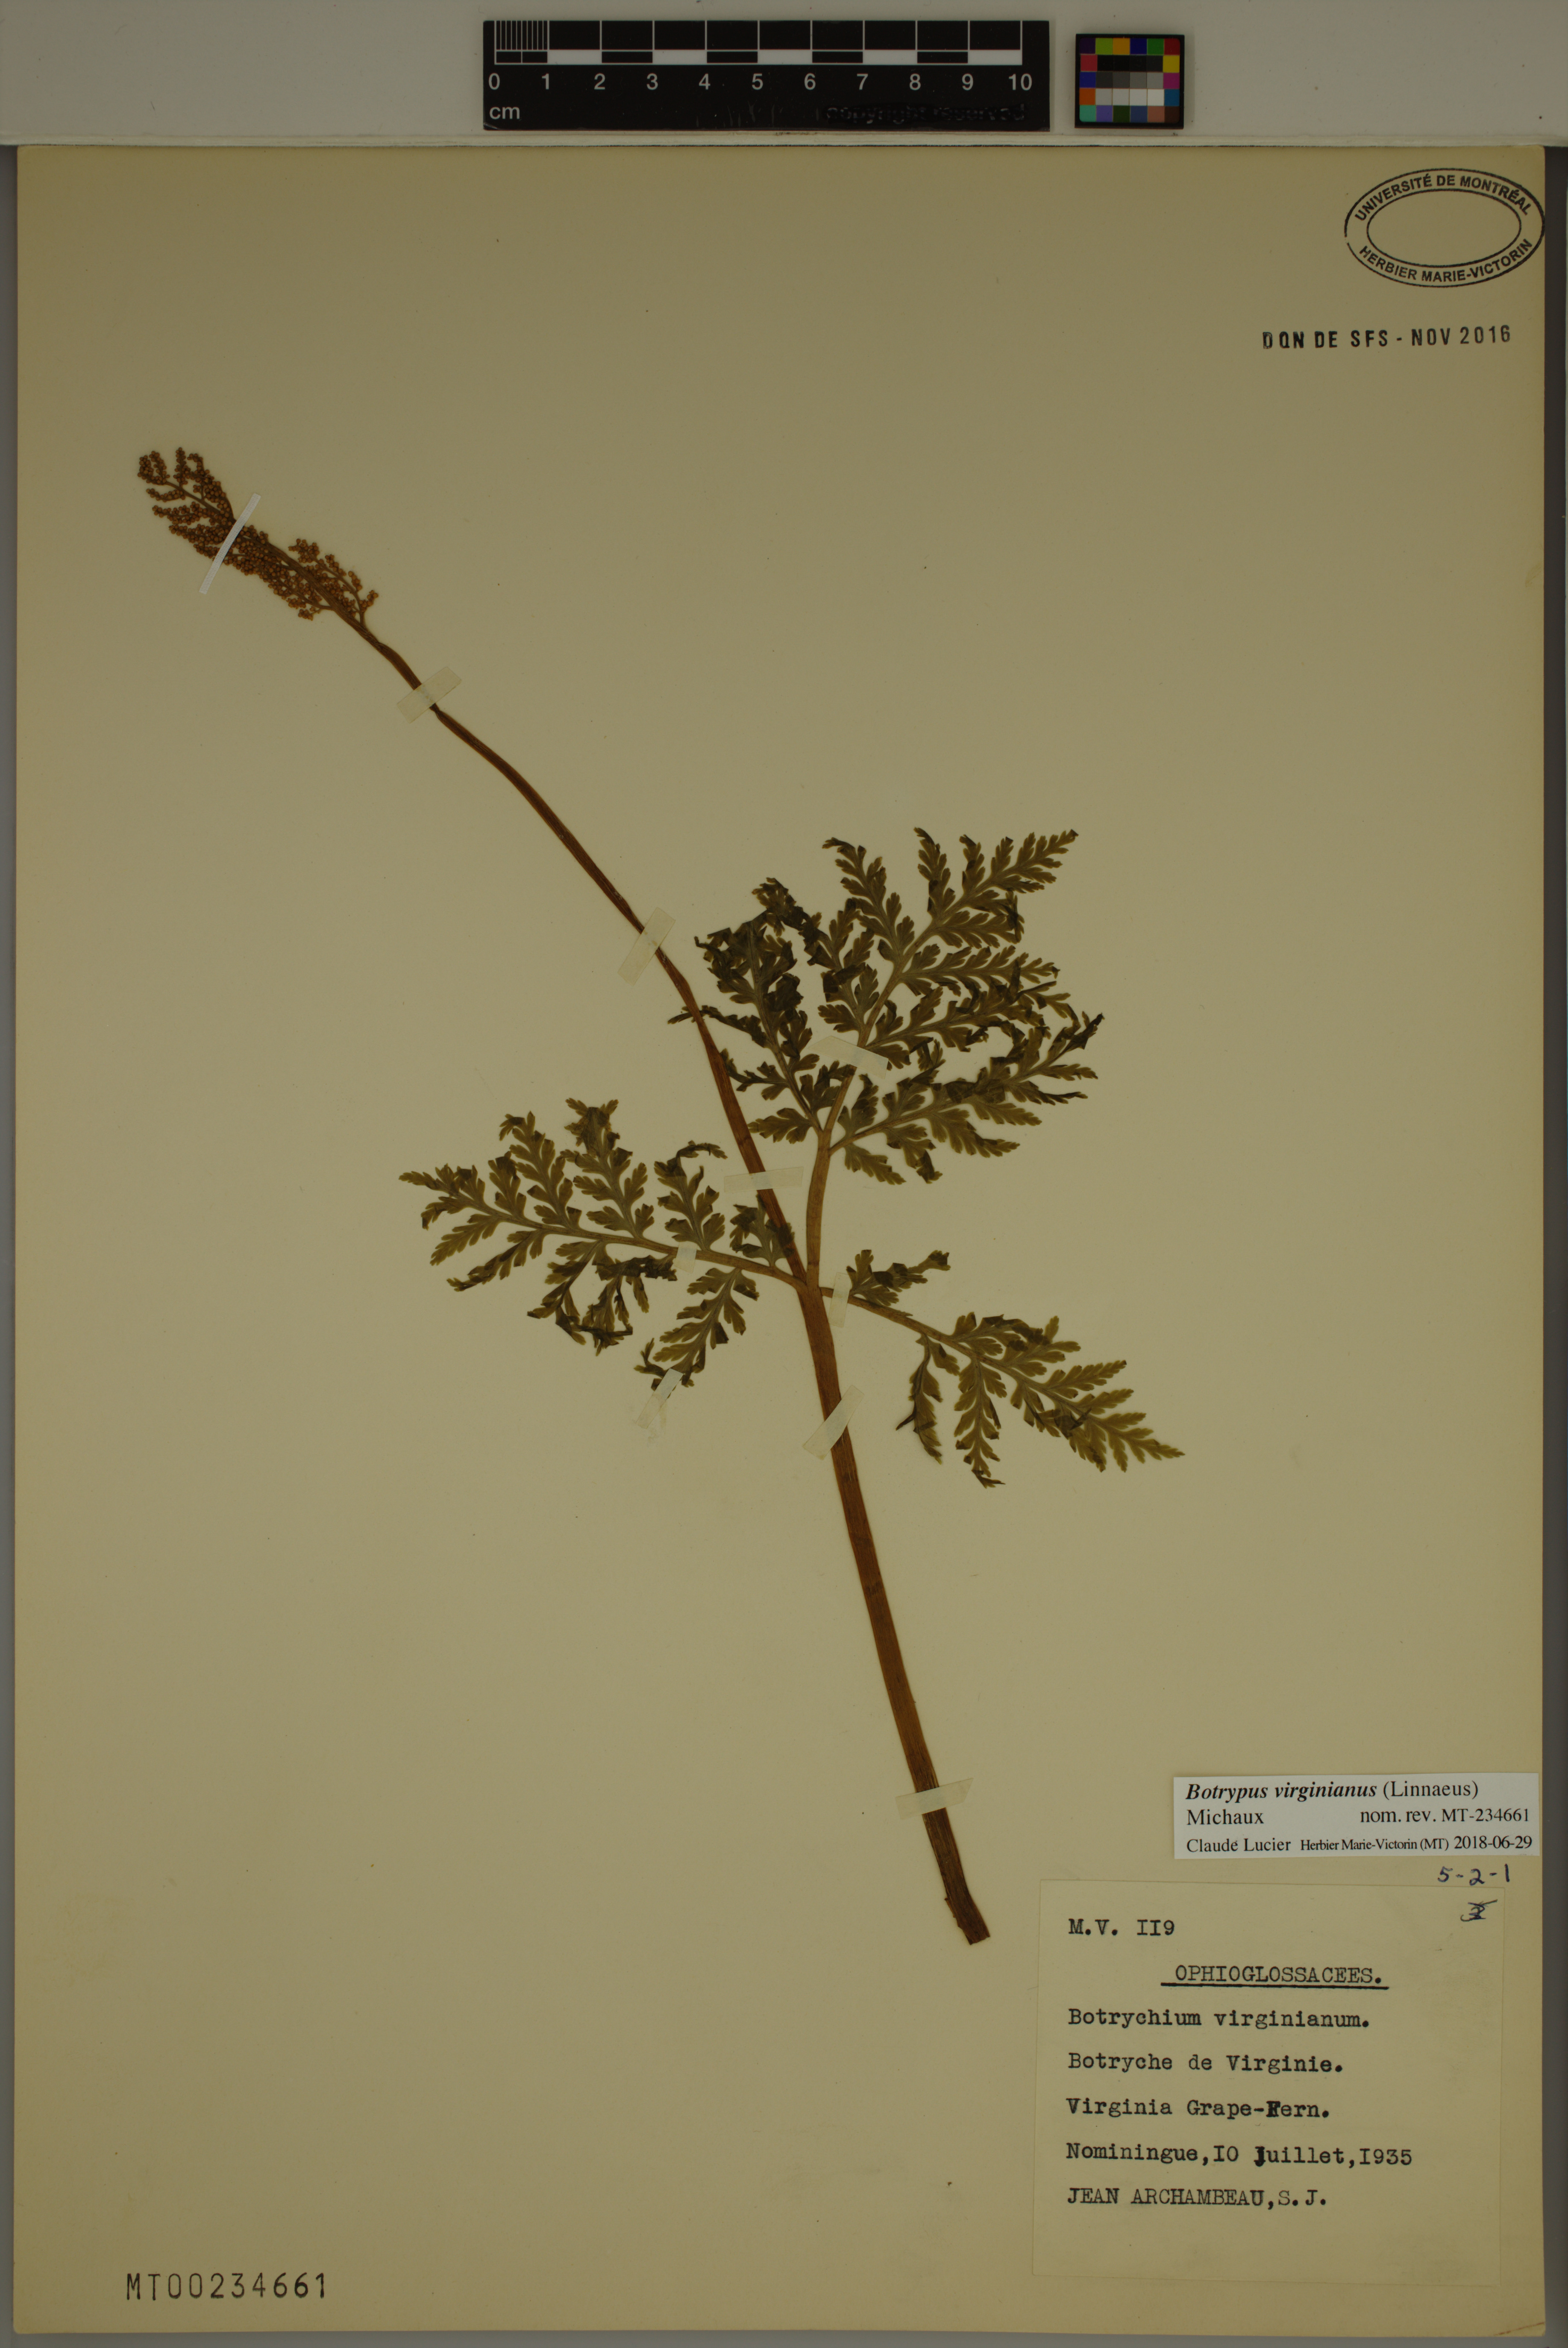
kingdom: Plantae
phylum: Tracheophyta
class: Polypodiopsida
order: Ophioglossales
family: Ophioglossaceae
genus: Botrypus
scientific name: Botrypus virginianus
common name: Common grapefern
